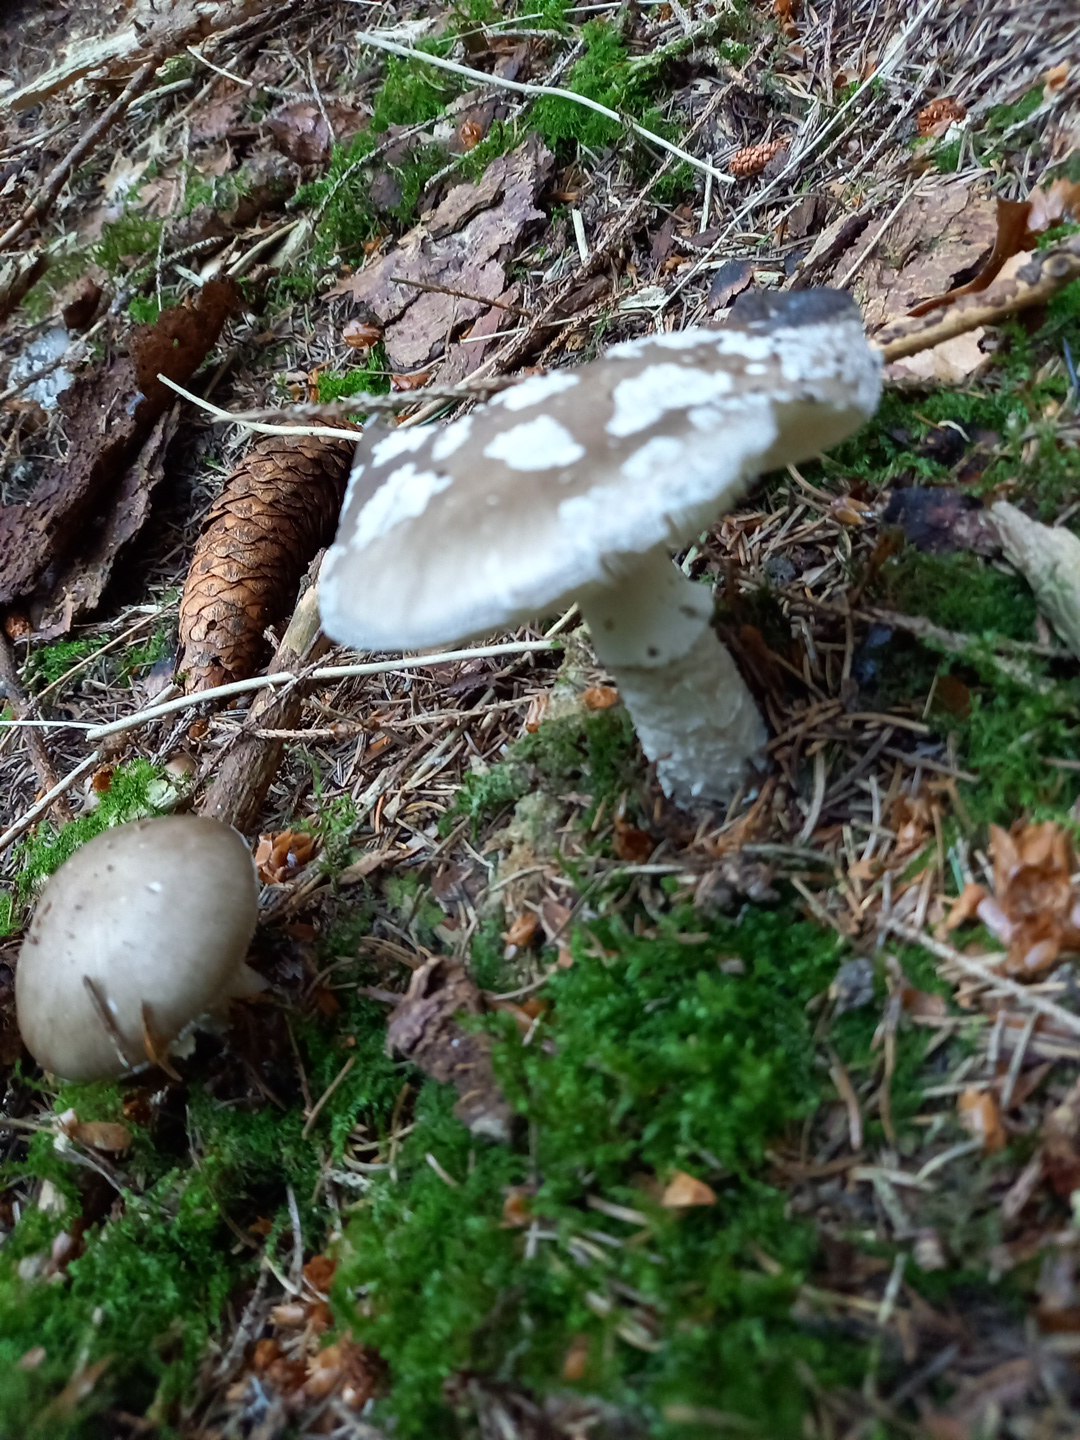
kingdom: Fungi
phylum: Basidiomycota
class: Agaricomycetes
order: Agaricales
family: Amanitaceae
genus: Amanita
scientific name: Amanita
